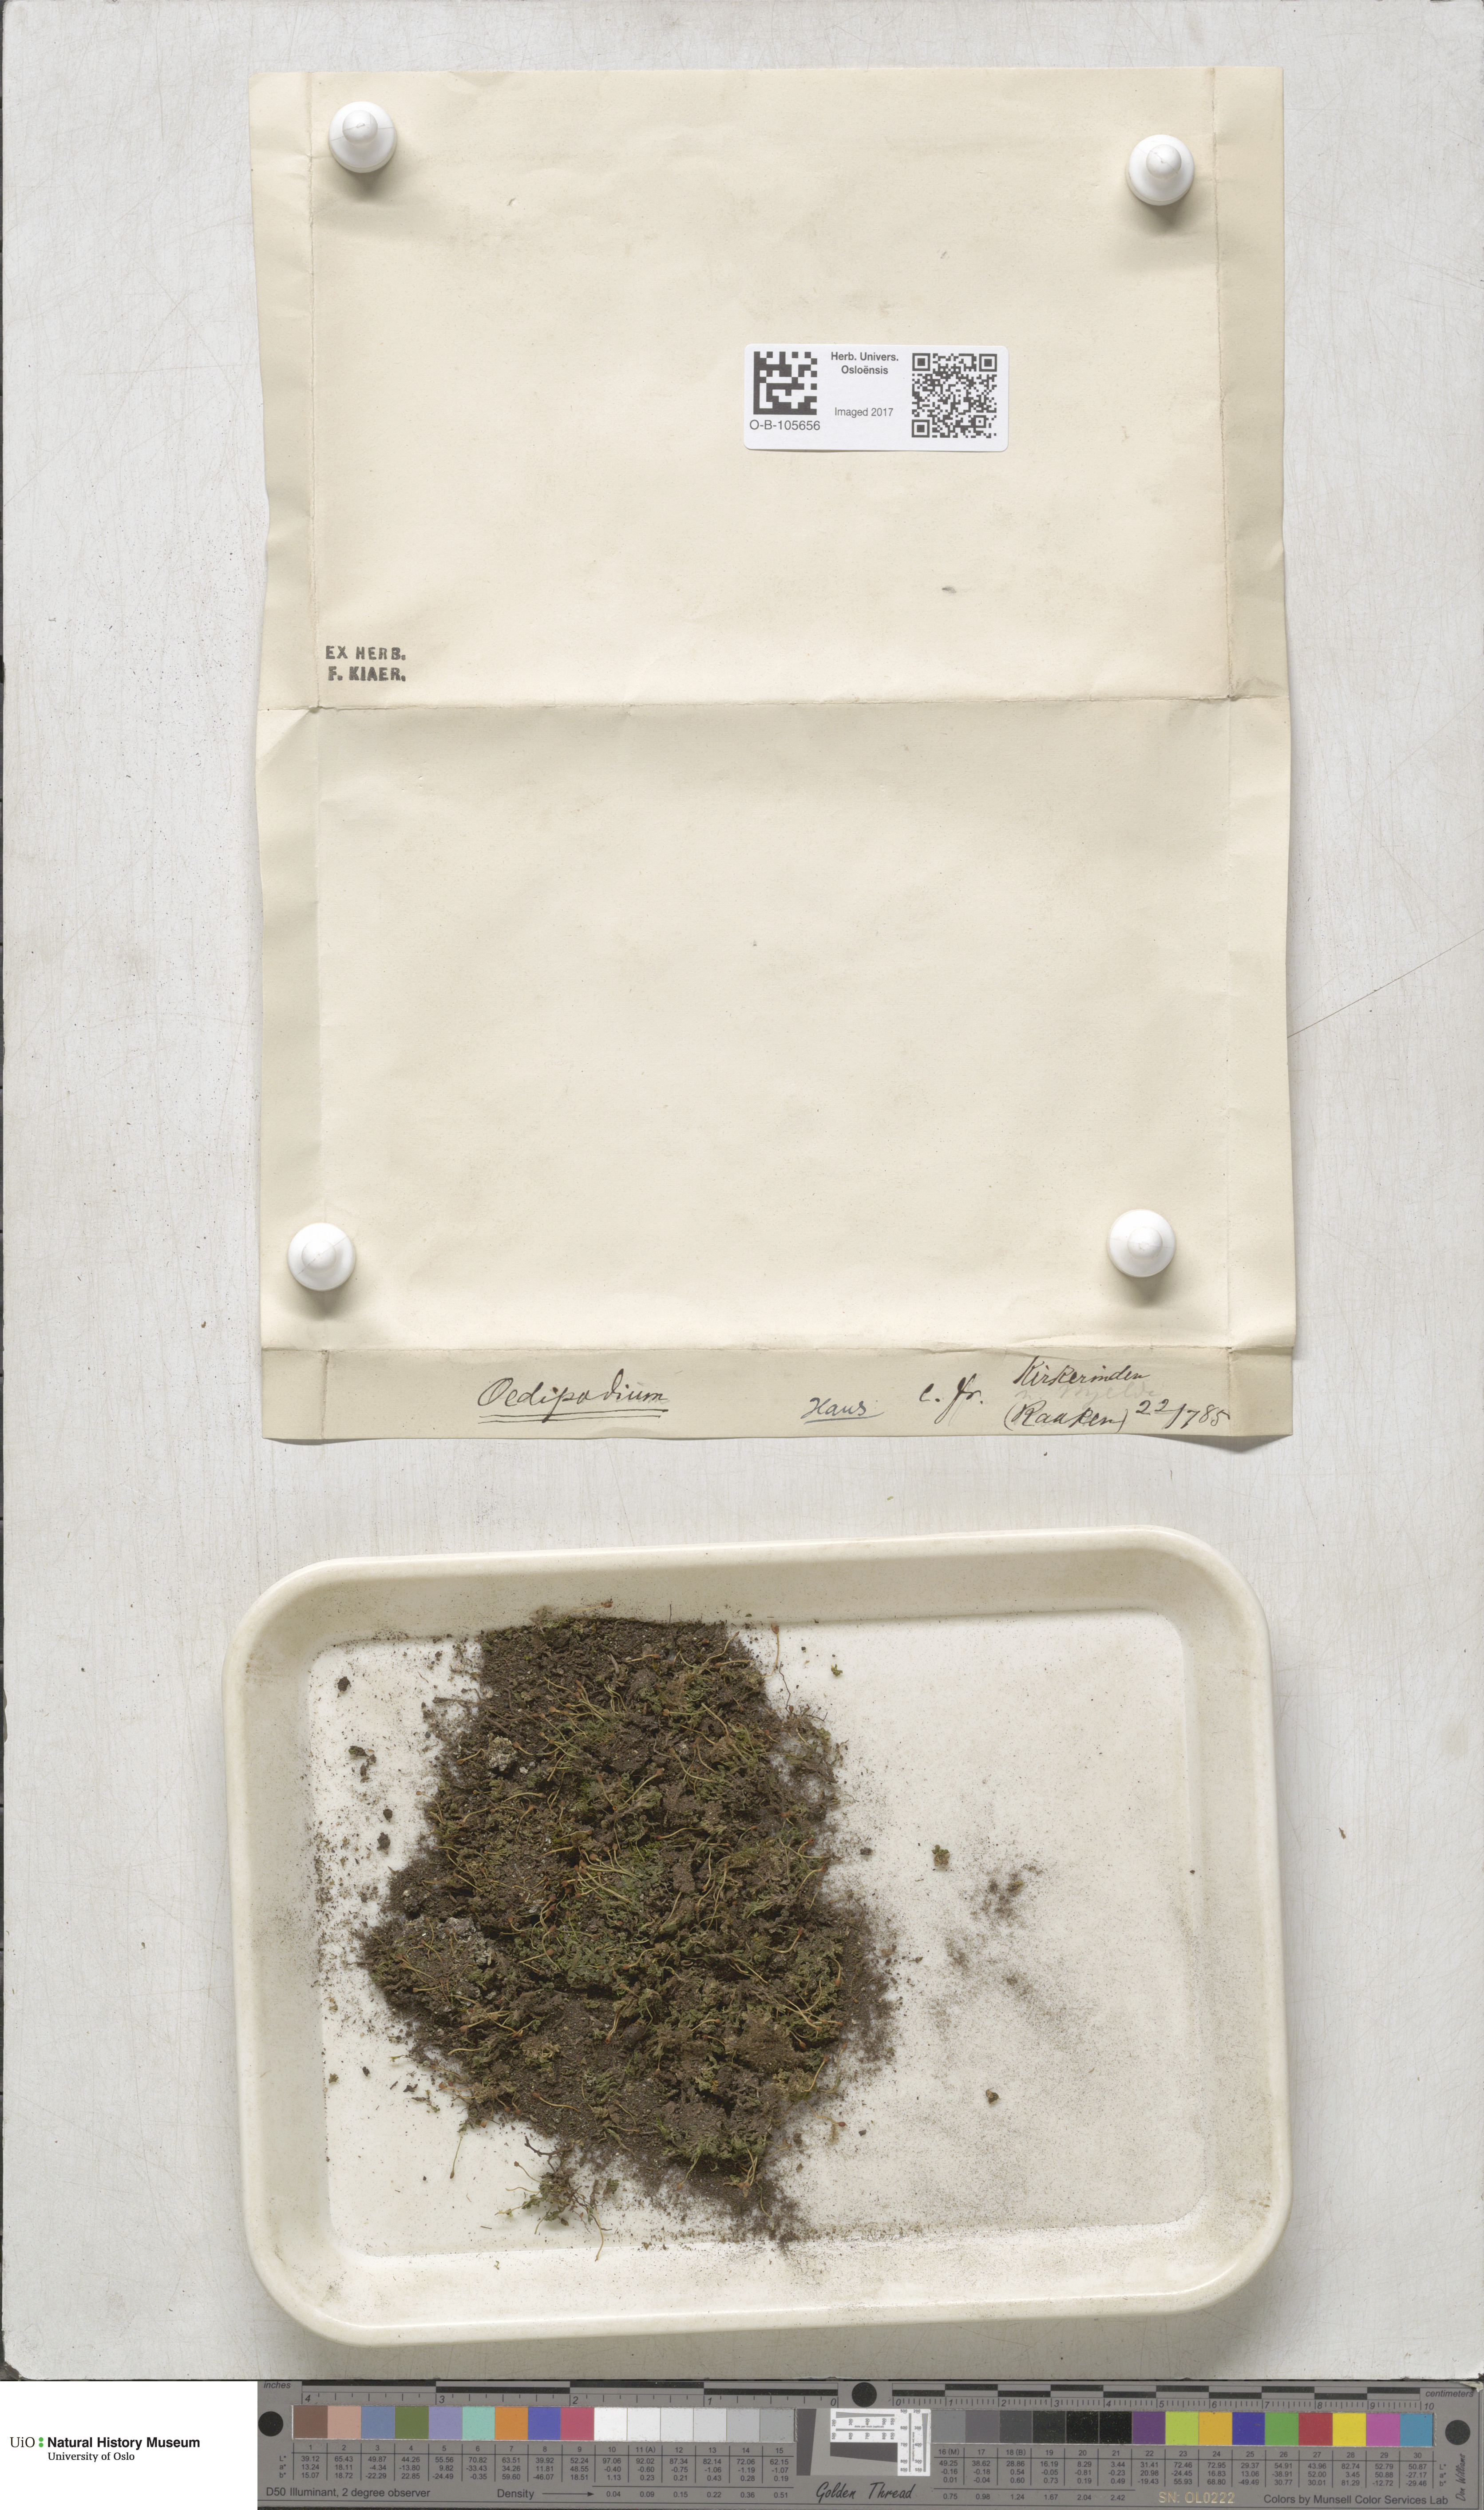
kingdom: Plantae
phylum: Bryophyta
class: Polytrichopsida
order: Oedipodiales
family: Oedipodiaceae
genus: Oedipodium
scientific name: Oedipodium griffithianum
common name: Gouty-moss
